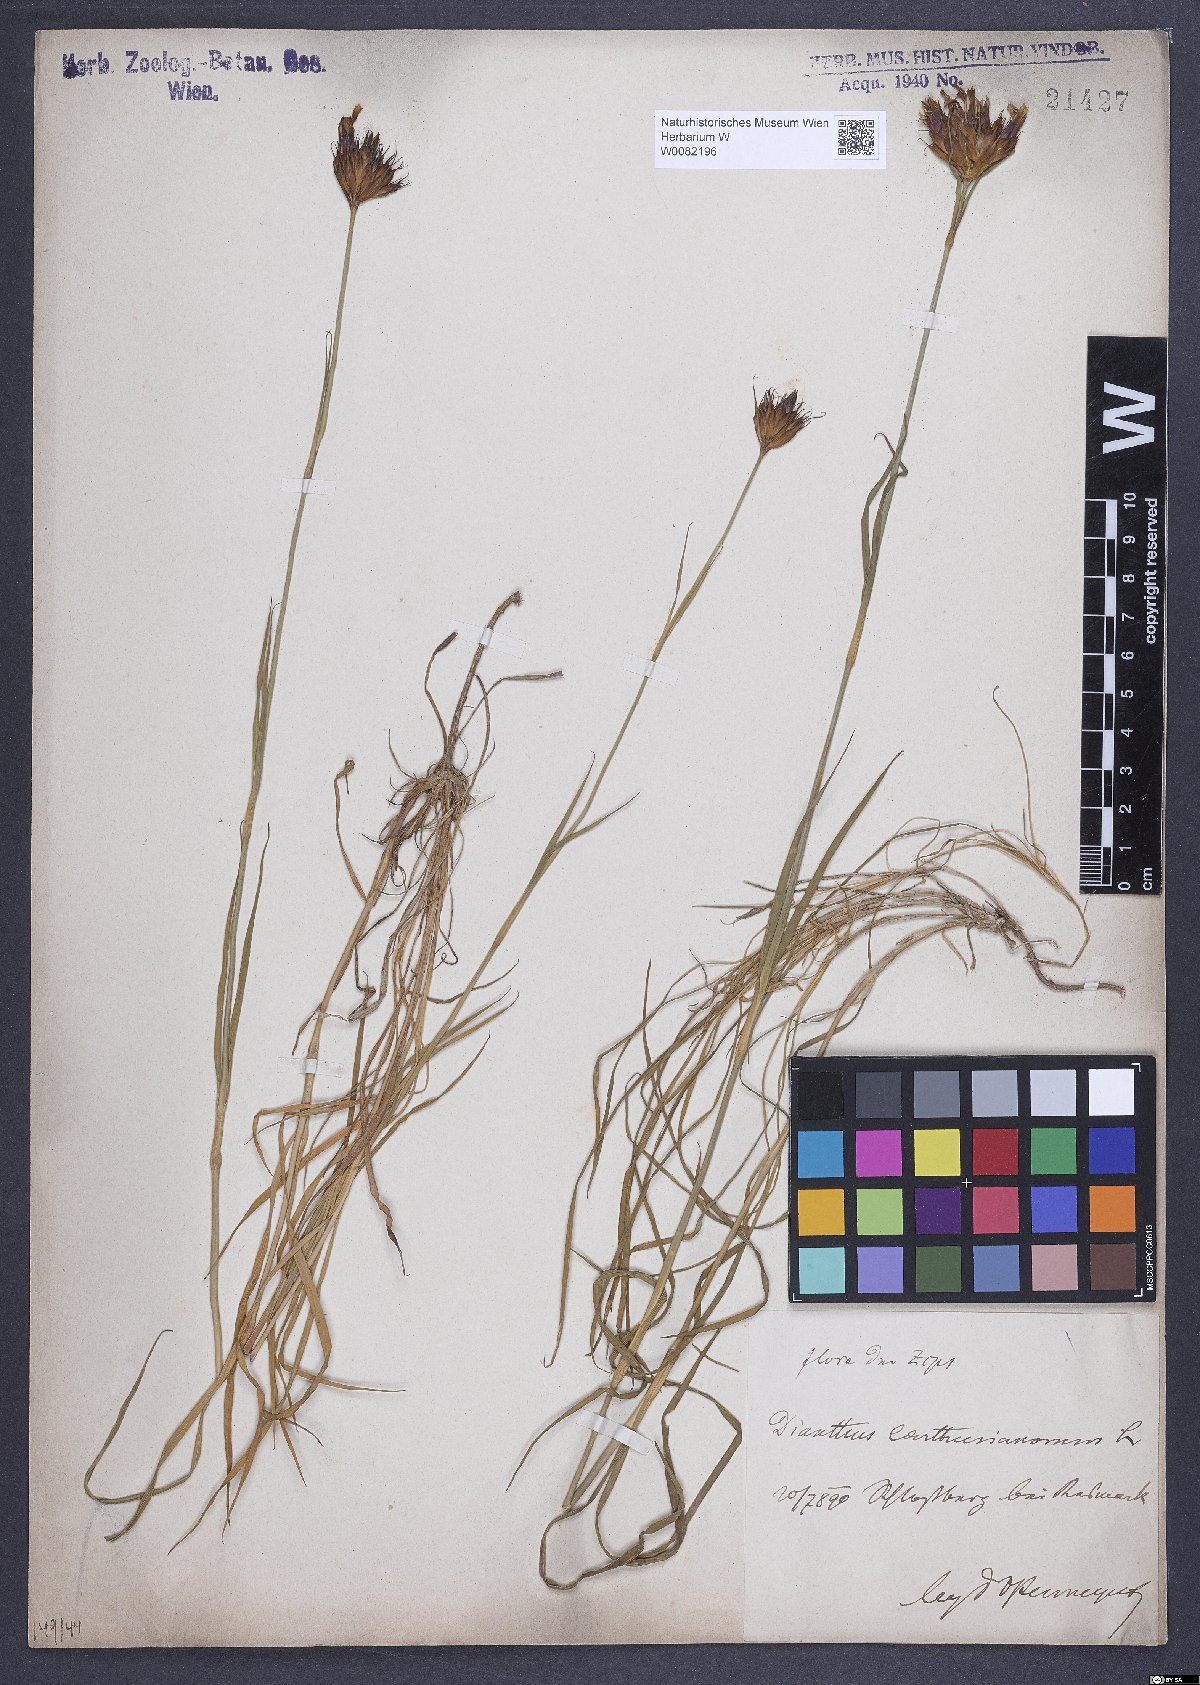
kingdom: Plantae
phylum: Tracheophyta
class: Magnoliopsida
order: Caryophyllales
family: Caryophyllaceae
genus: Dianthus
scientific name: Dianthus carthusianorum
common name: Carthusian pink
